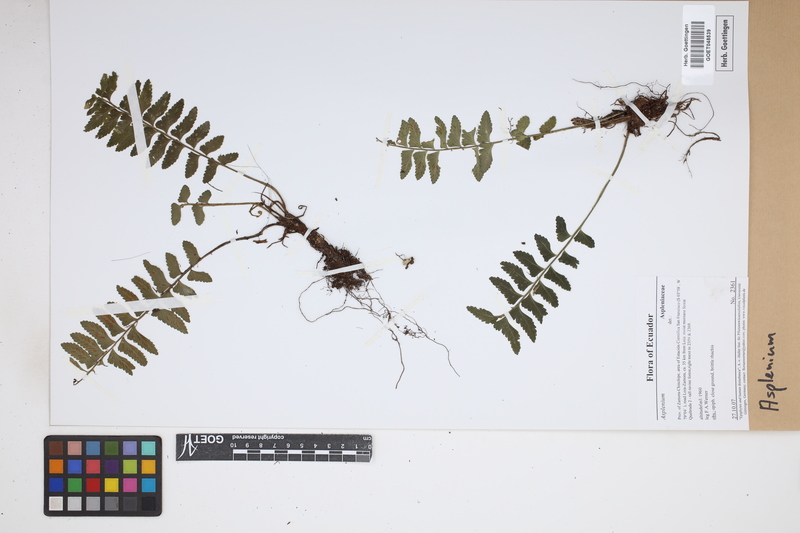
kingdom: Plantae
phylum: Tracheophyta
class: Polypodiopsida
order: Polypodiales
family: Aspleniaceae
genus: Asplenium
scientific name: Asplenium
